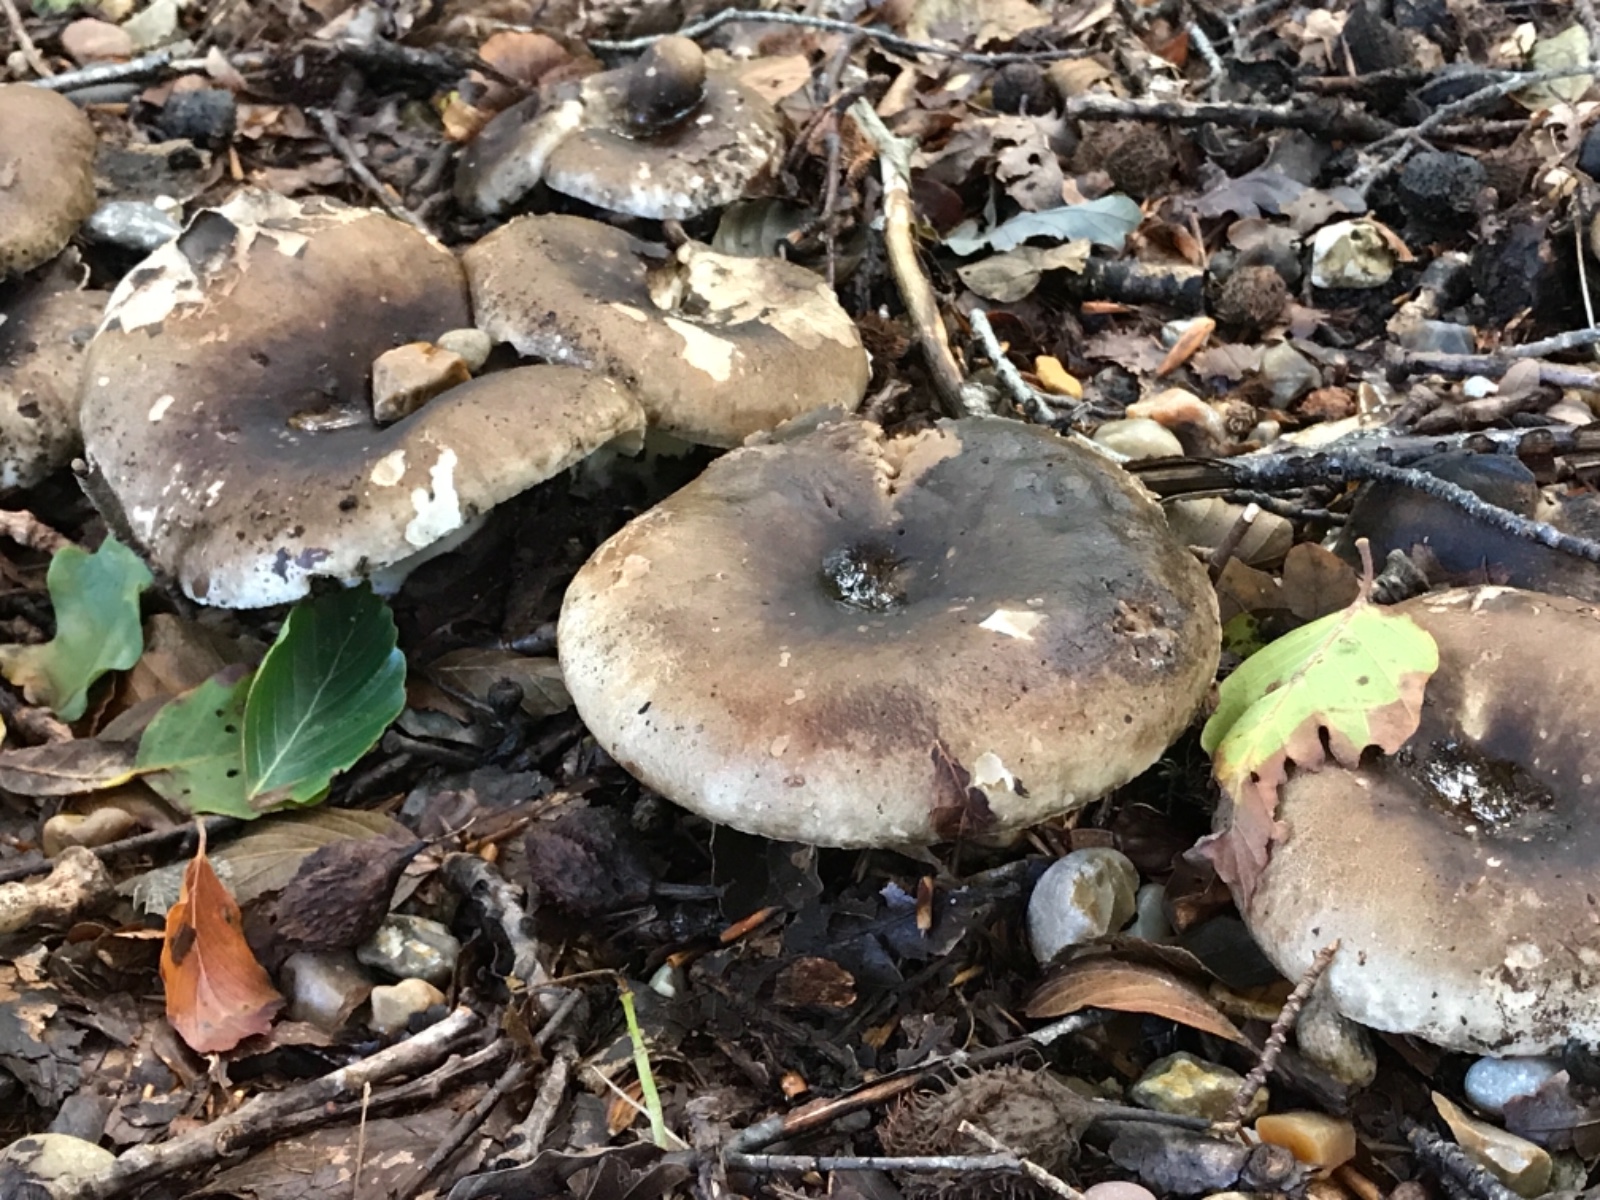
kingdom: Fungi
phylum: Basidiomycota
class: Agaricomycetes
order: Russulales
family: Russulaceae
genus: Russula
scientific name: Russula adusta
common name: sværtende skørhat
